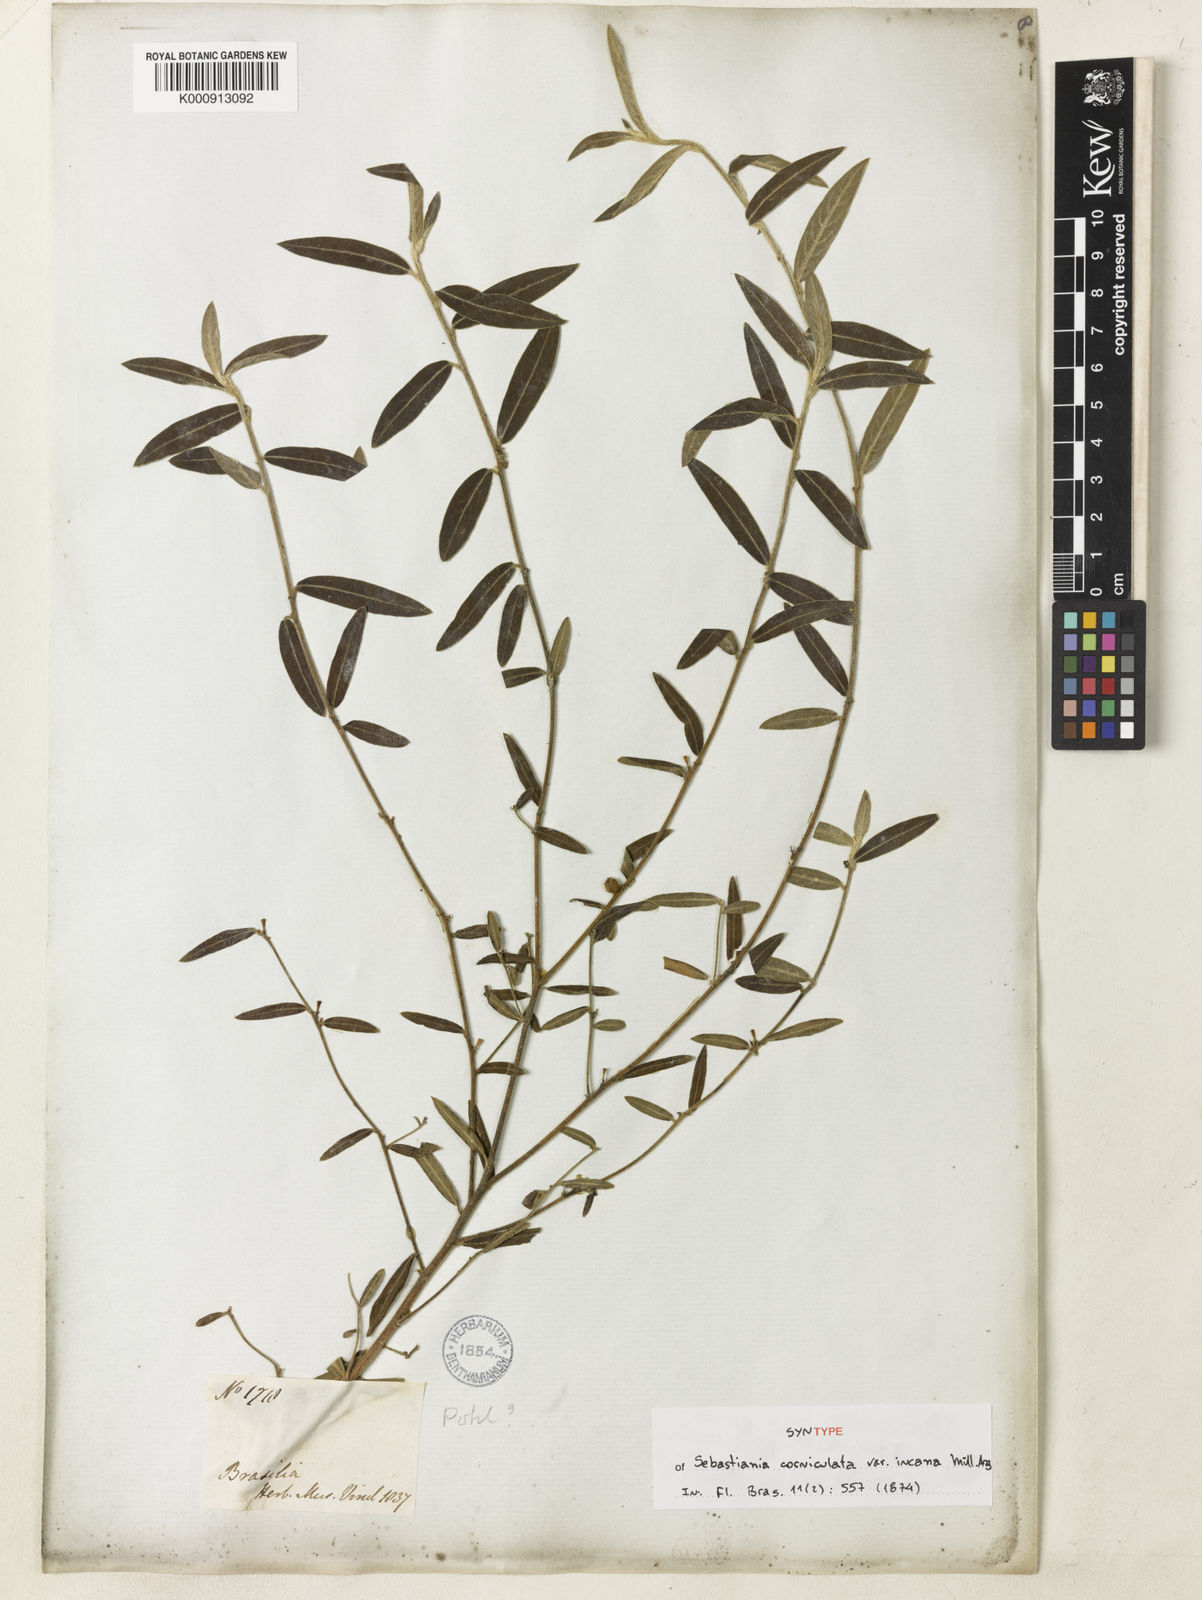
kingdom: Plantae
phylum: Tracheophyta
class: Magnoliopsida
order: Malpighiales
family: Euphorbiaceae
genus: Microstachys
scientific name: Microstachys hispida
